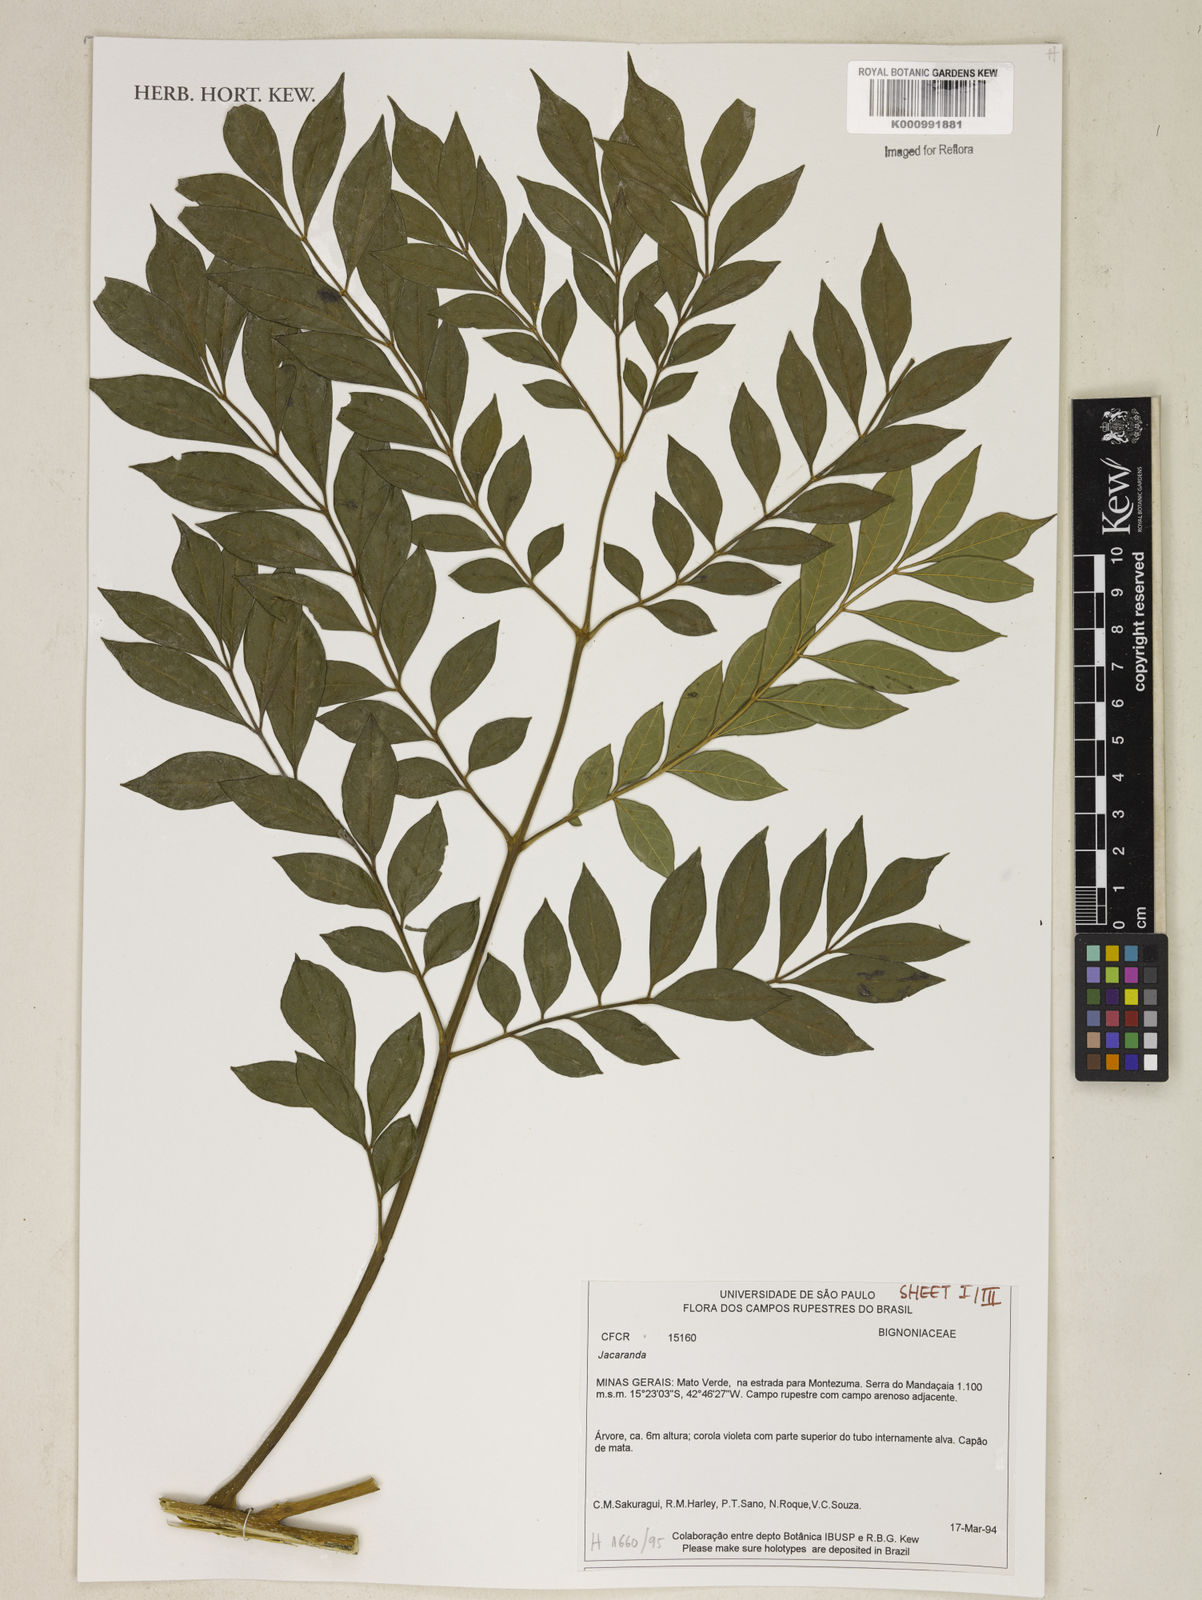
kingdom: Plantae
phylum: Tracheophyta
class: Magnoliopsida
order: Lamiales
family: Bignoniaceae
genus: Jacaranda
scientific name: Jacaranda
